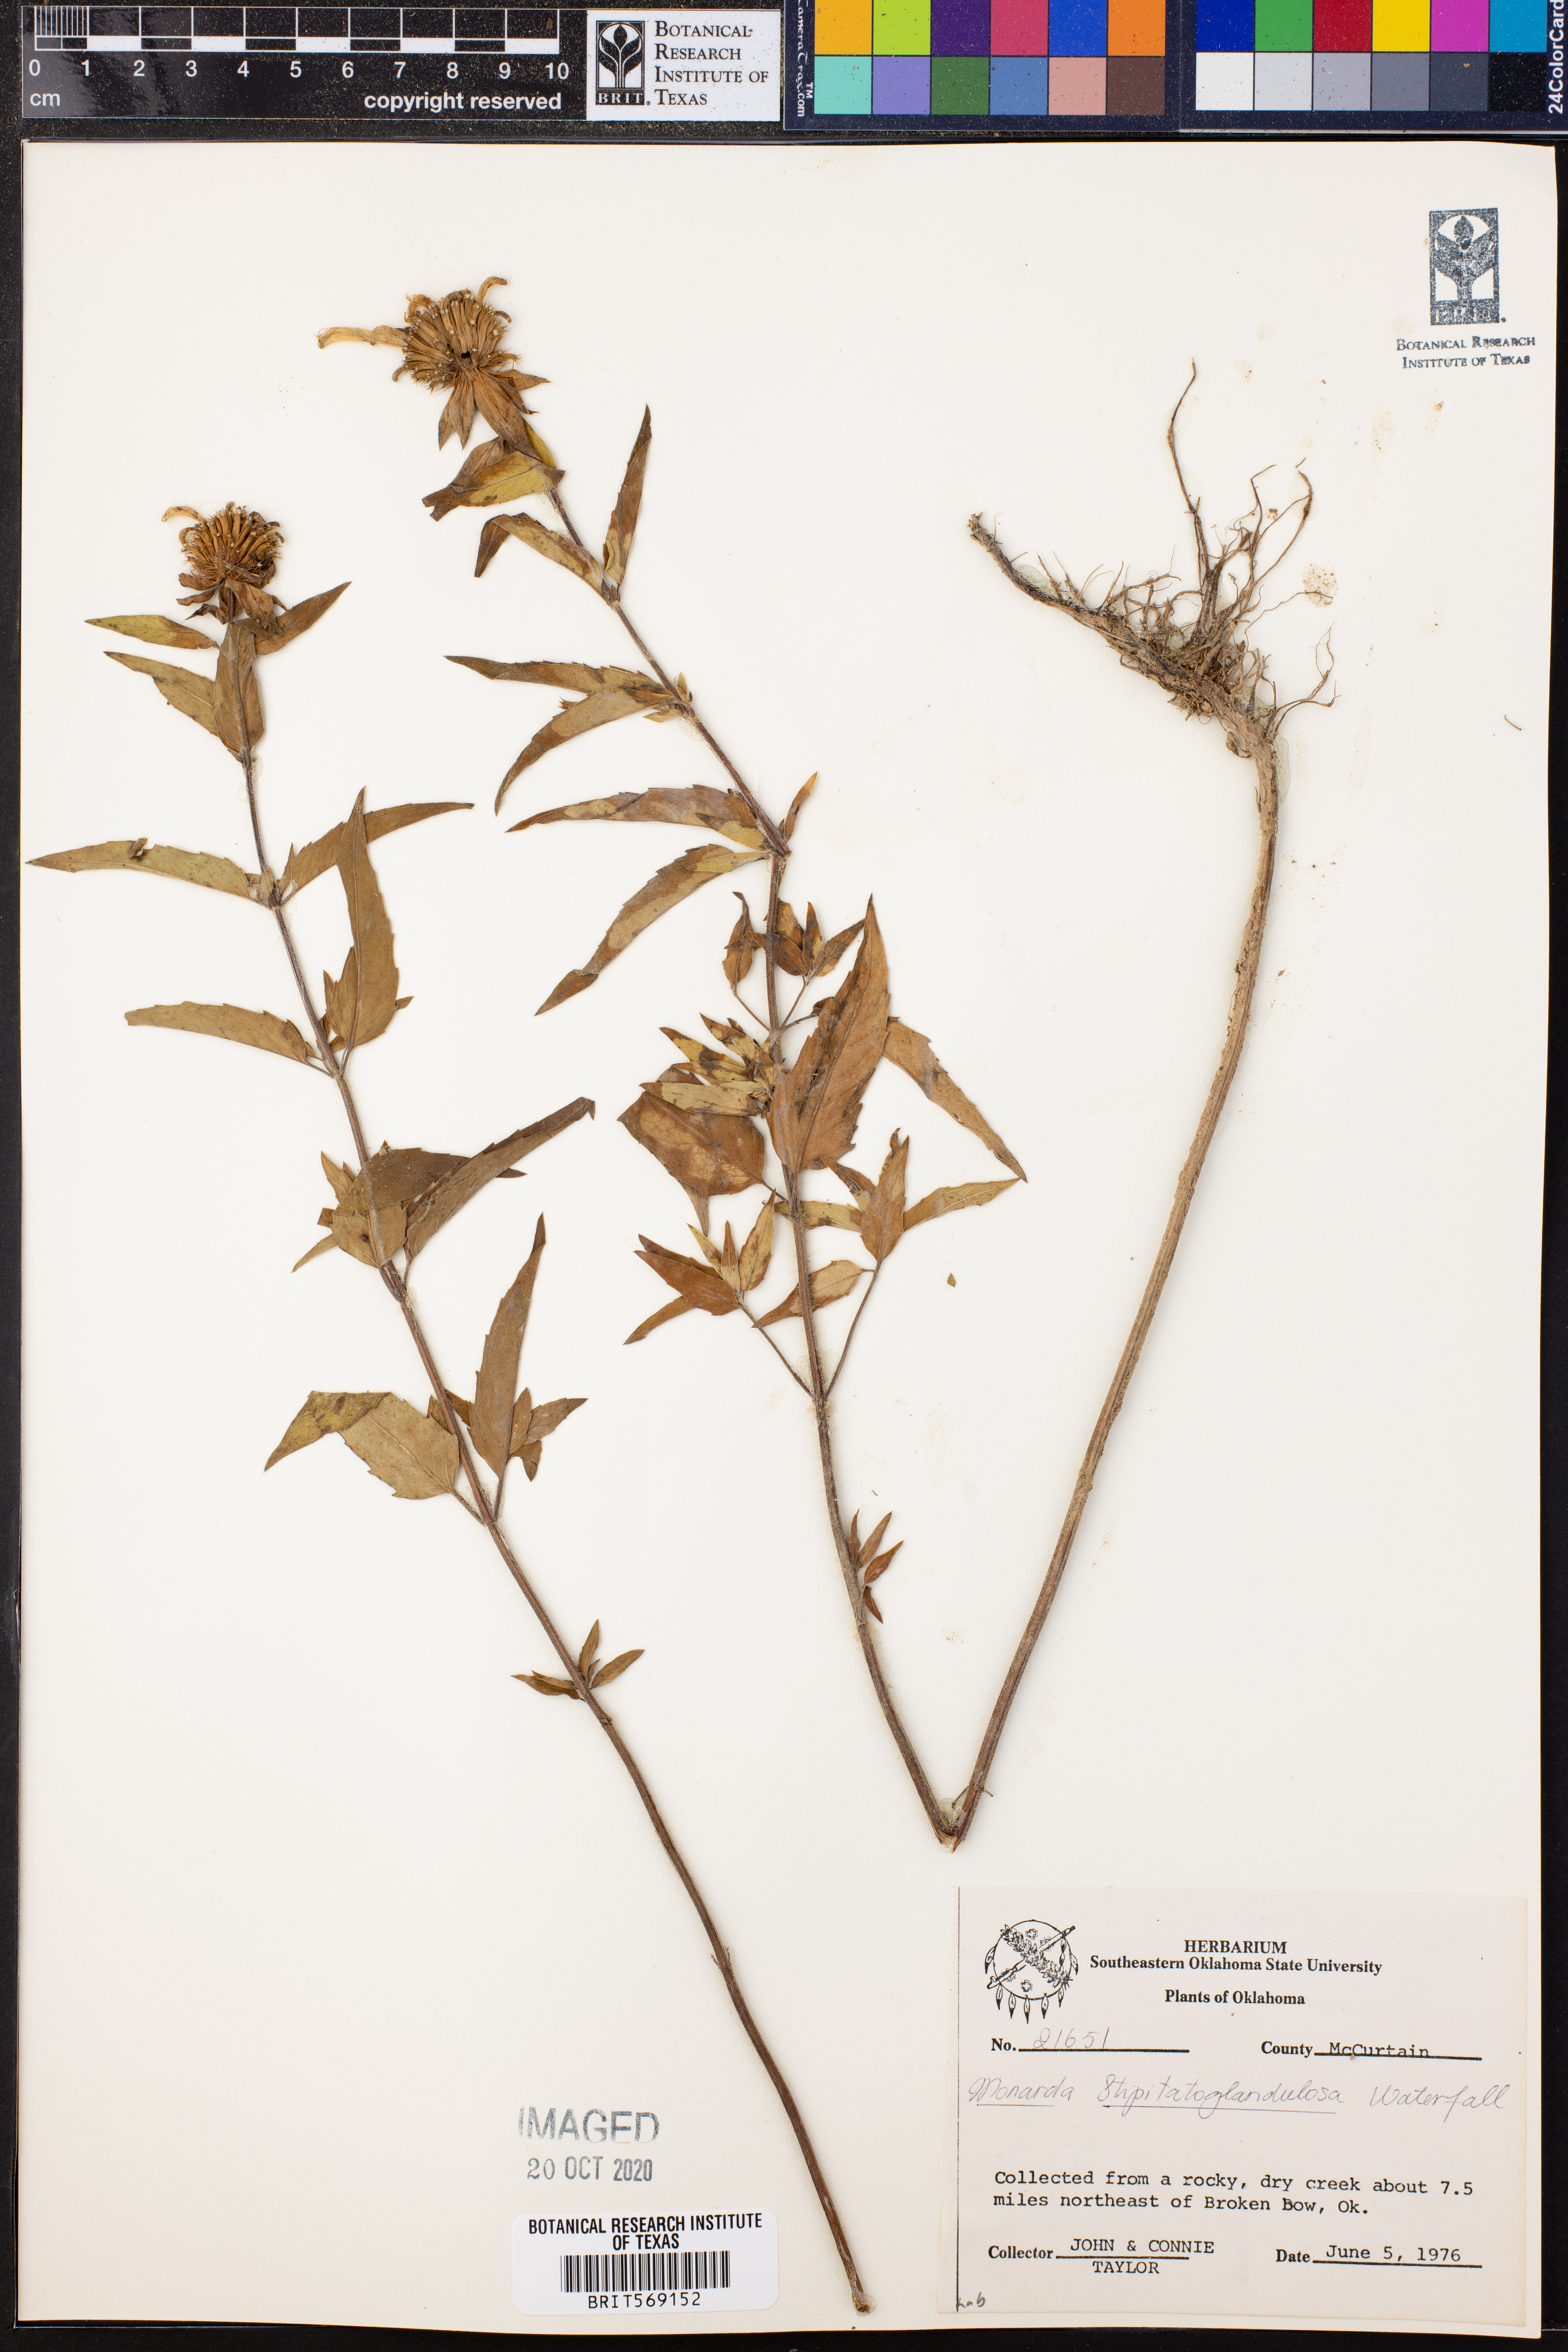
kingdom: Plantae
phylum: Tracheophyta
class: Magnoliopsida
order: Lamiales
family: Lamiaceae
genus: Monarda
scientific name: Monarda fistulosa
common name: Purple beebalm
